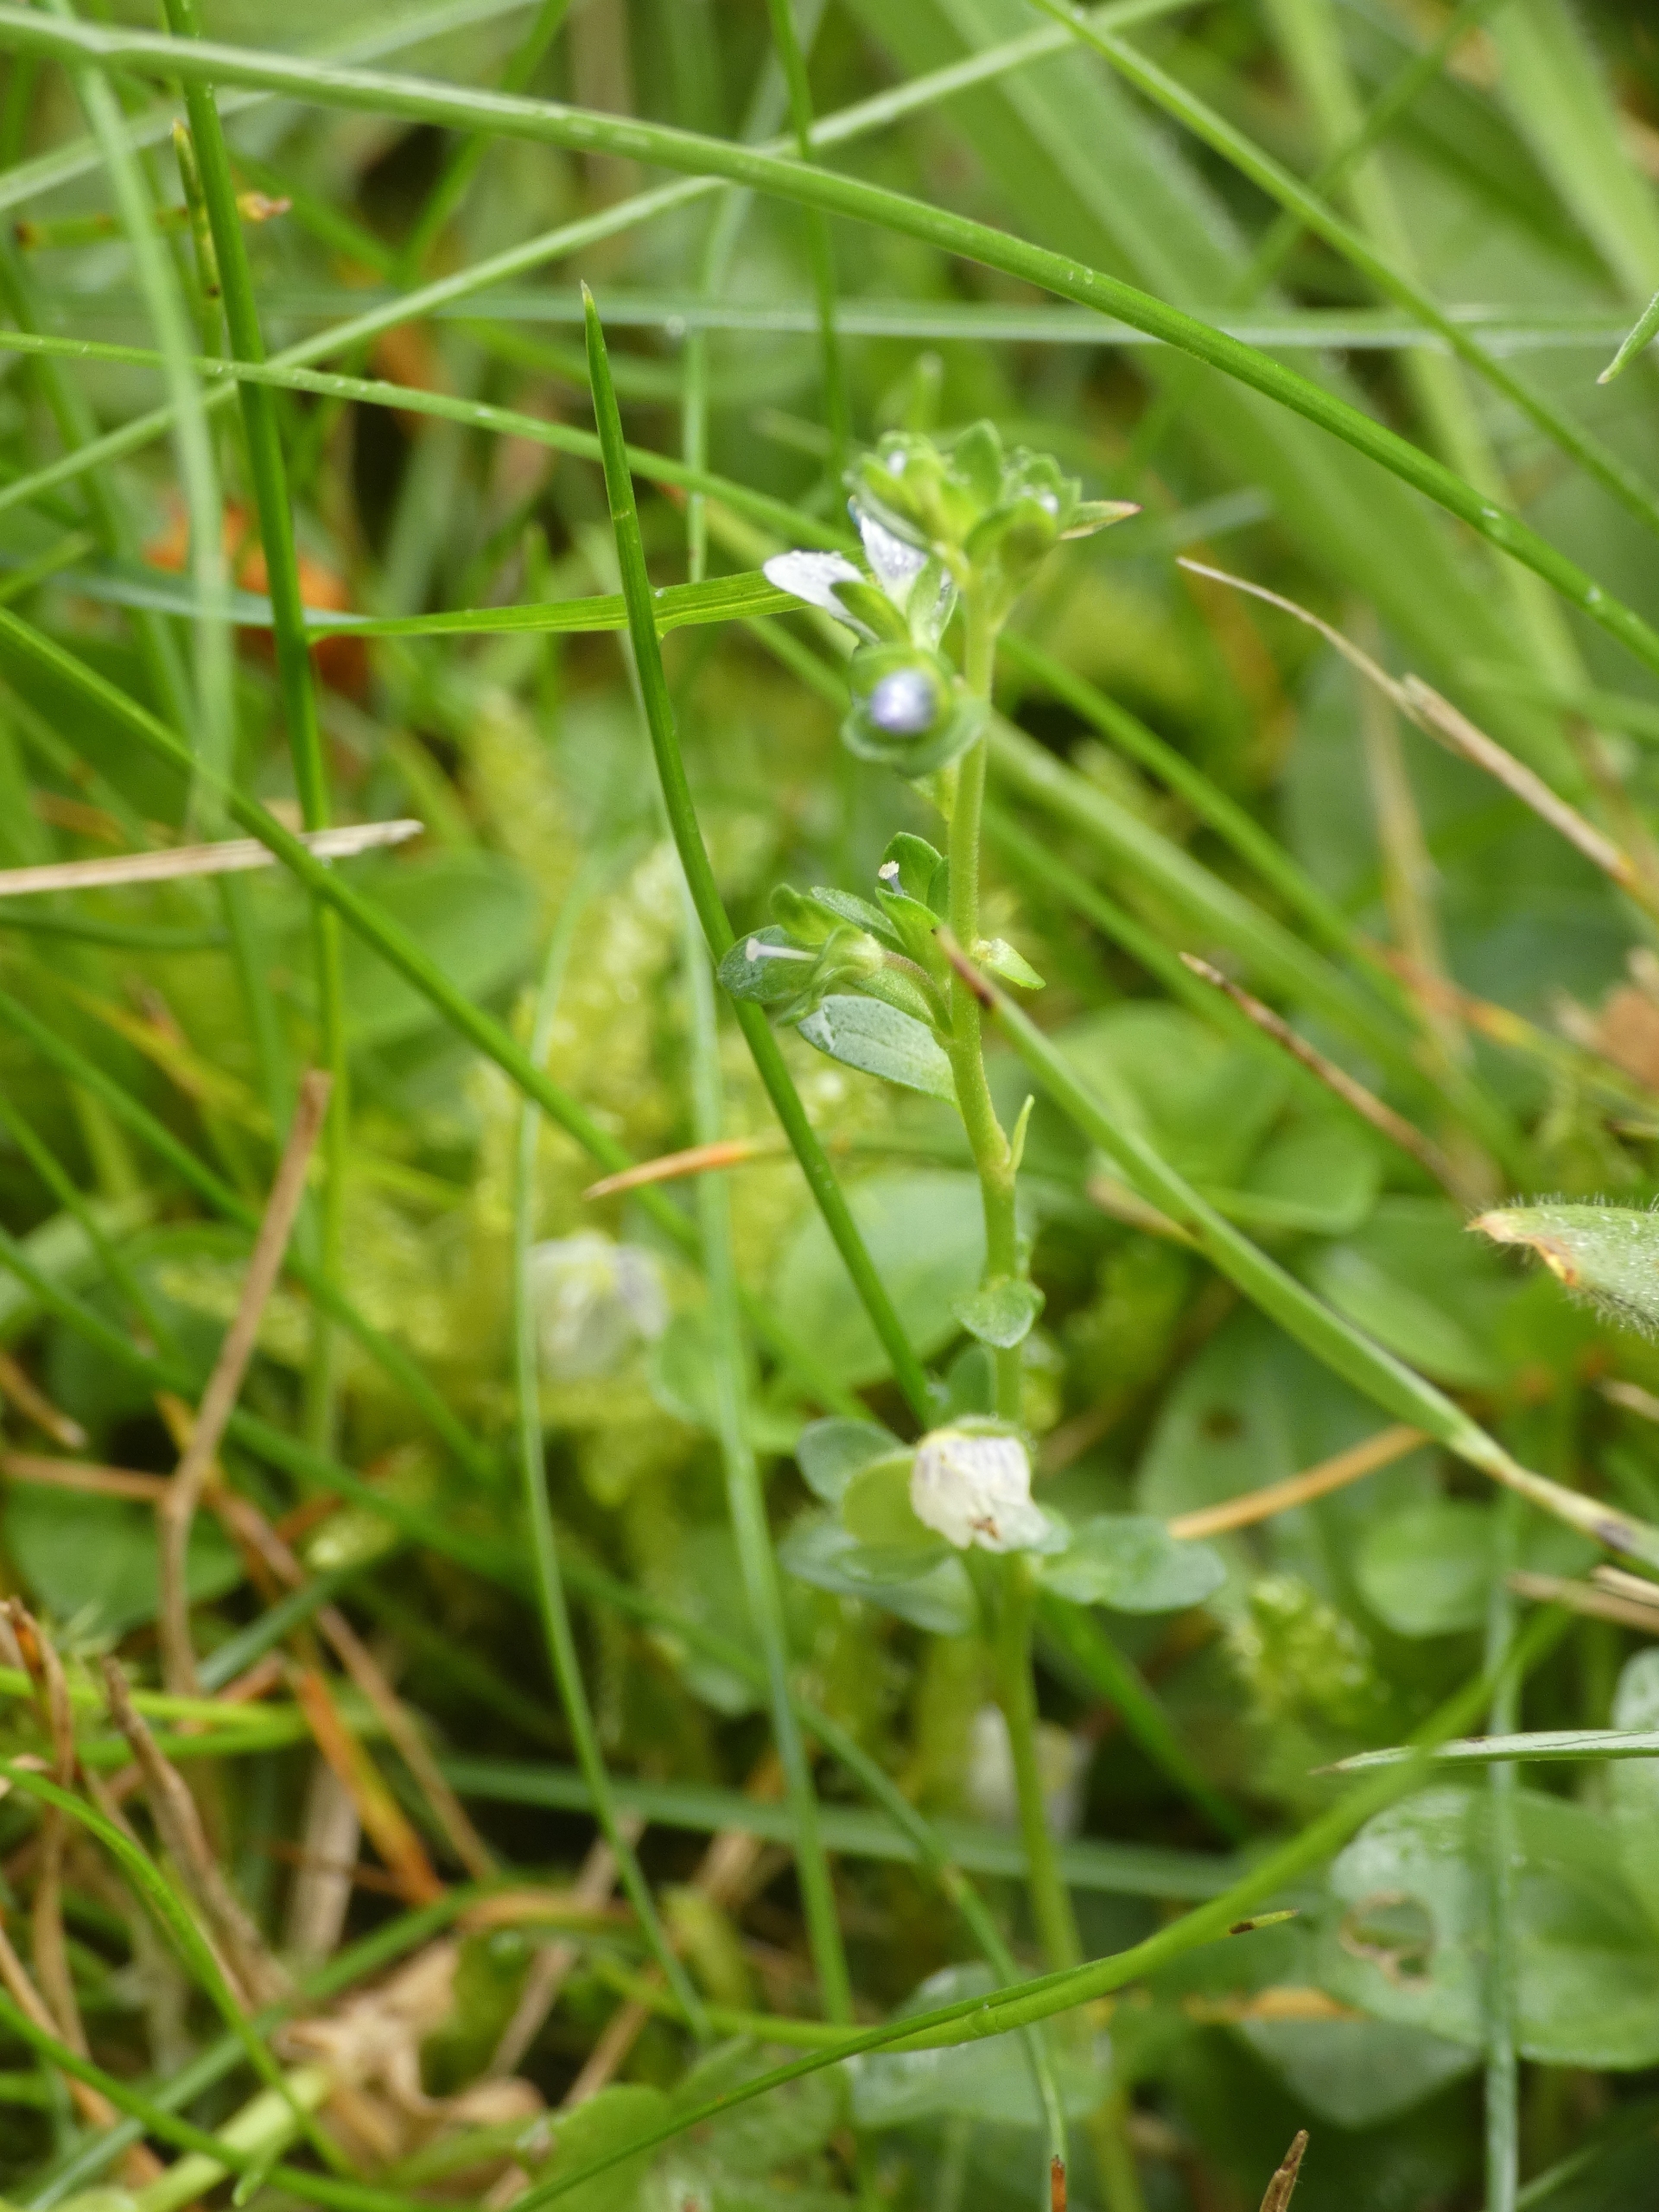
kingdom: Plantae
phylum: Tracheophyta
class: Magnoliopsida
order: Lamiales
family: Plantaginaceae
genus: Veronica
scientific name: Veronica serpyllifolia
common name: Glat ærenpris
